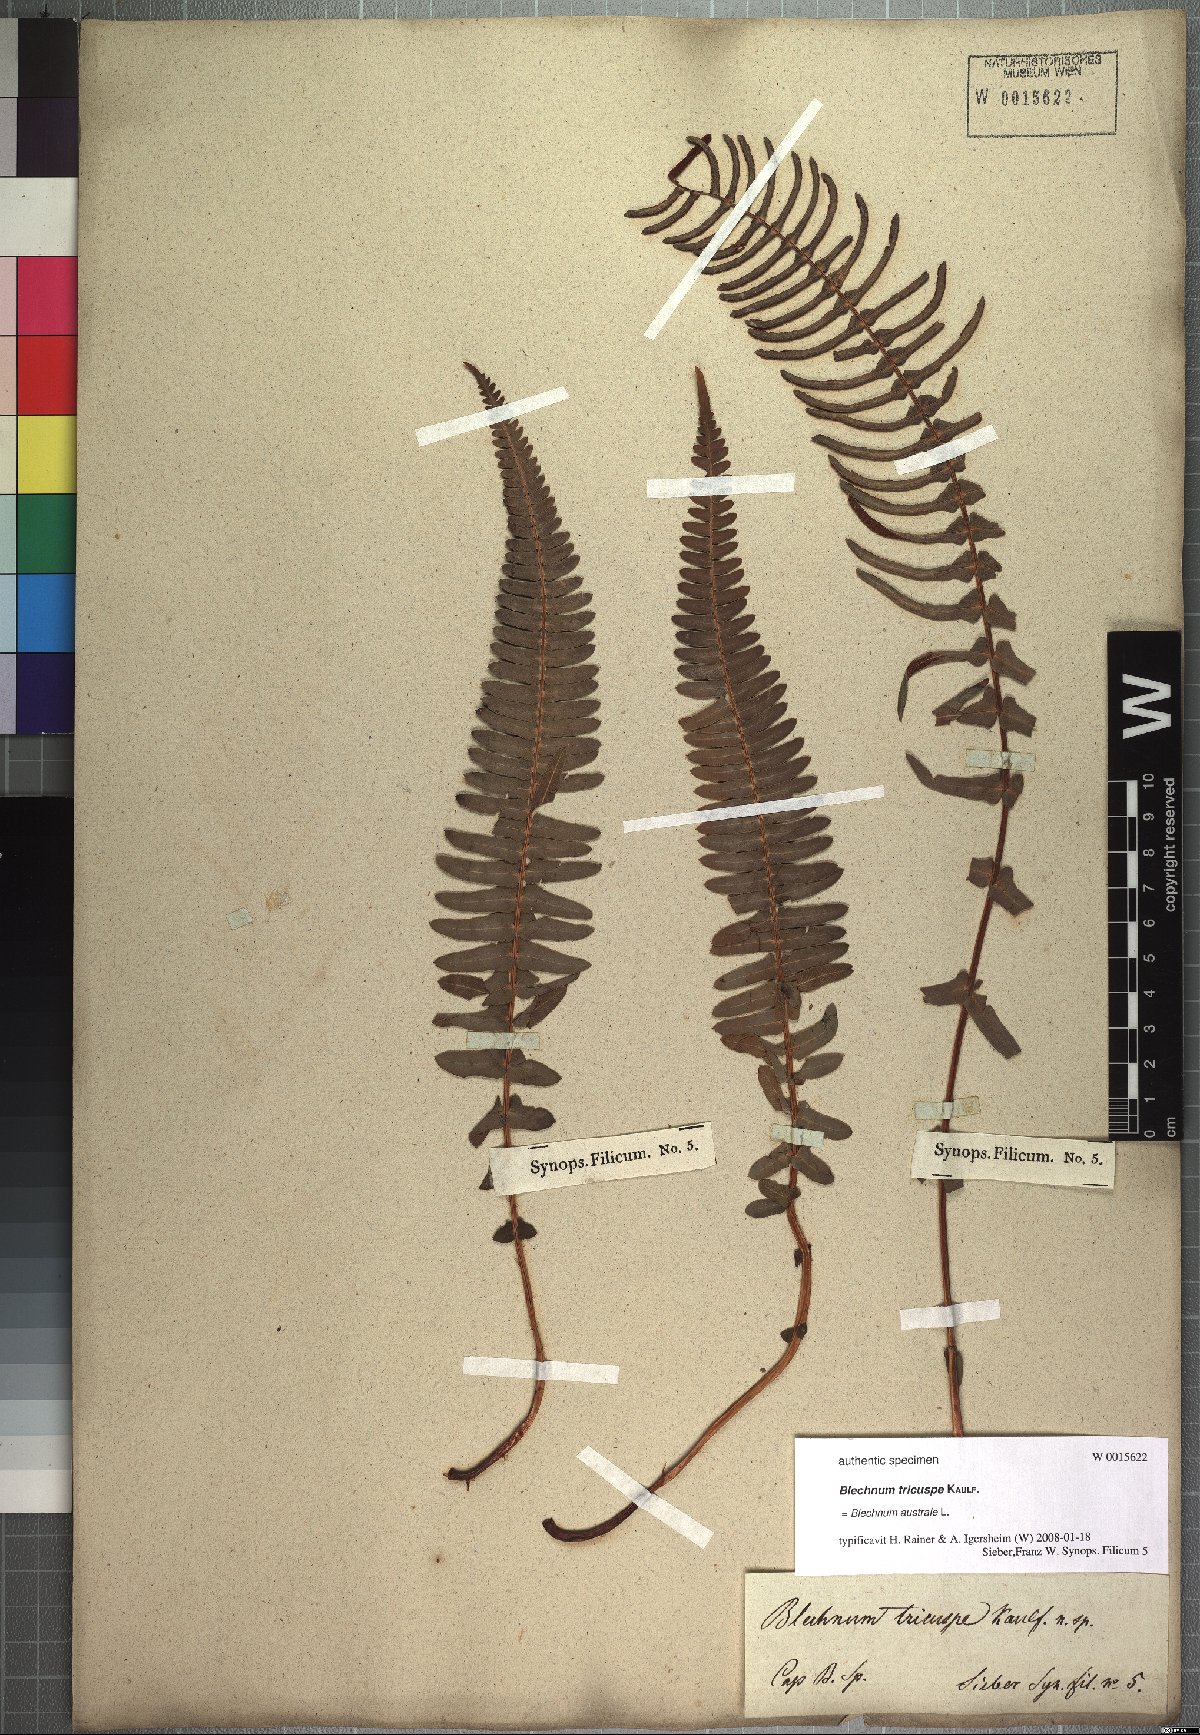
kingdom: Plantae
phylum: Tracheophyta
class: Polypodiopsida
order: Polypodiales
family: Blechnaceae
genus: Blechnum
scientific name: Blechnum australe
